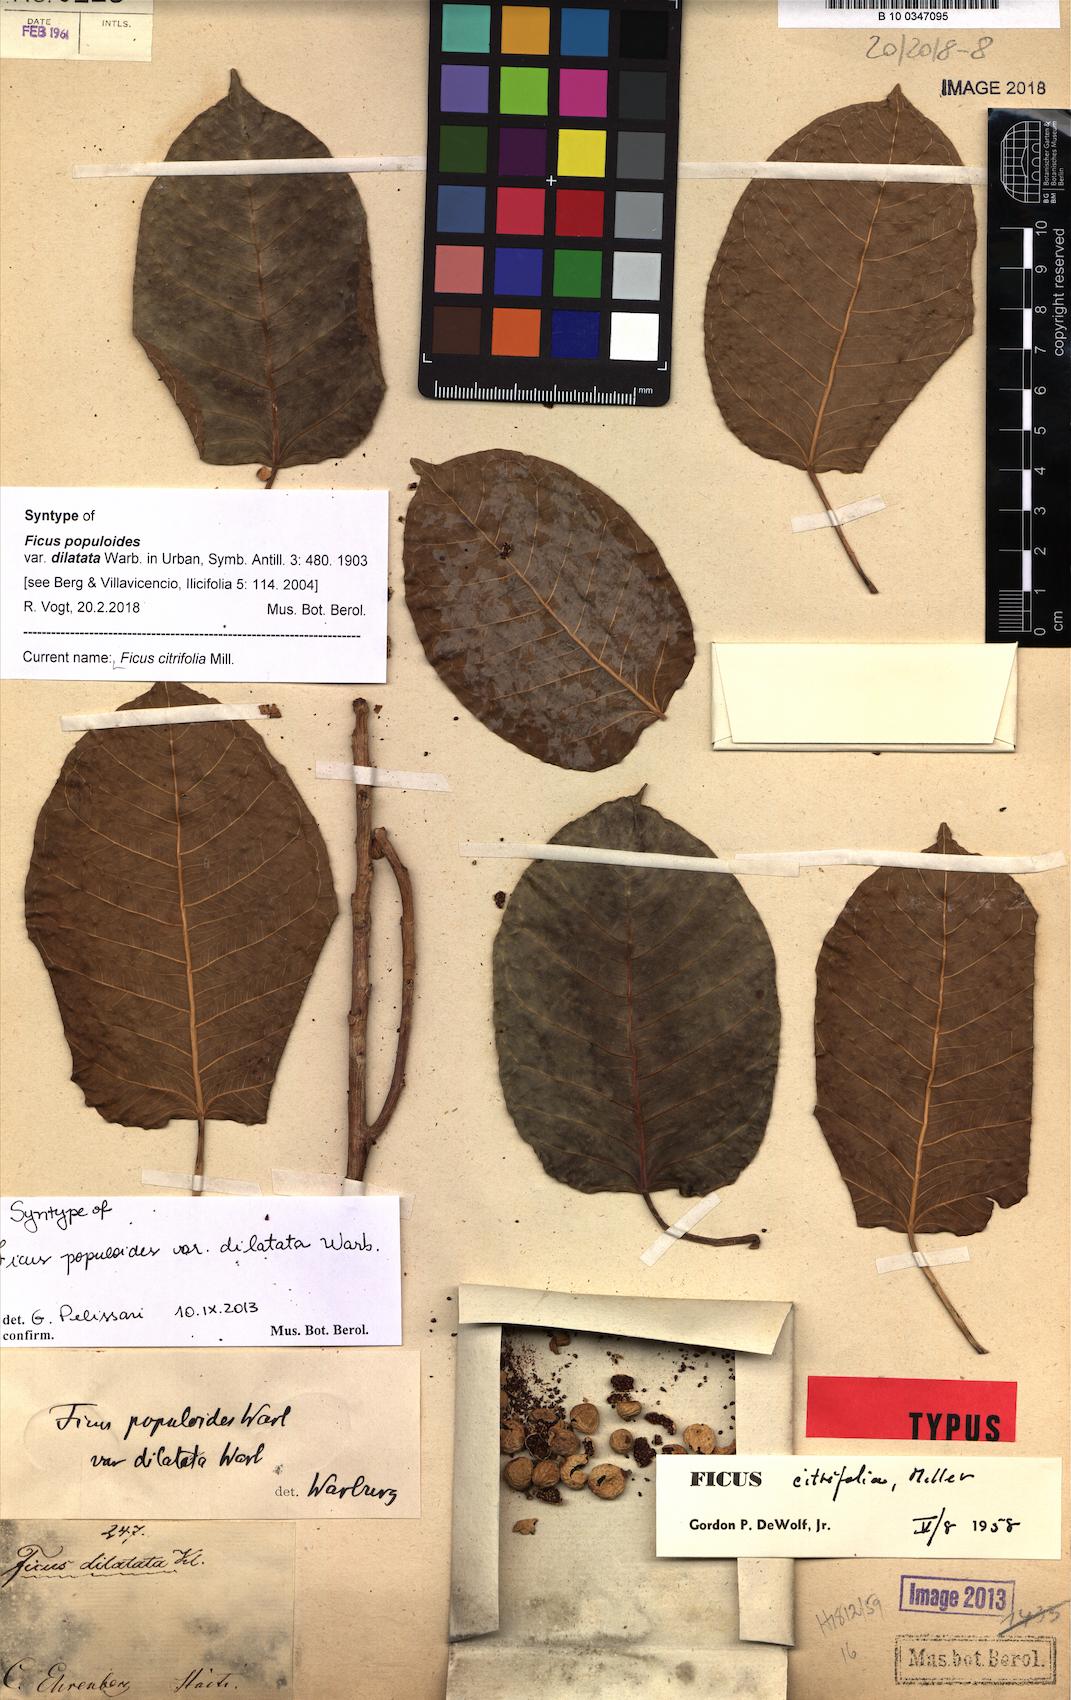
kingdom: Plantae
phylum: Tracheophyta
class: Magnoliopsida
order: Rosales
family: Moraceae
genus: Ficus
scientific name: Ficus citrifolia
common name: Strangler fig
